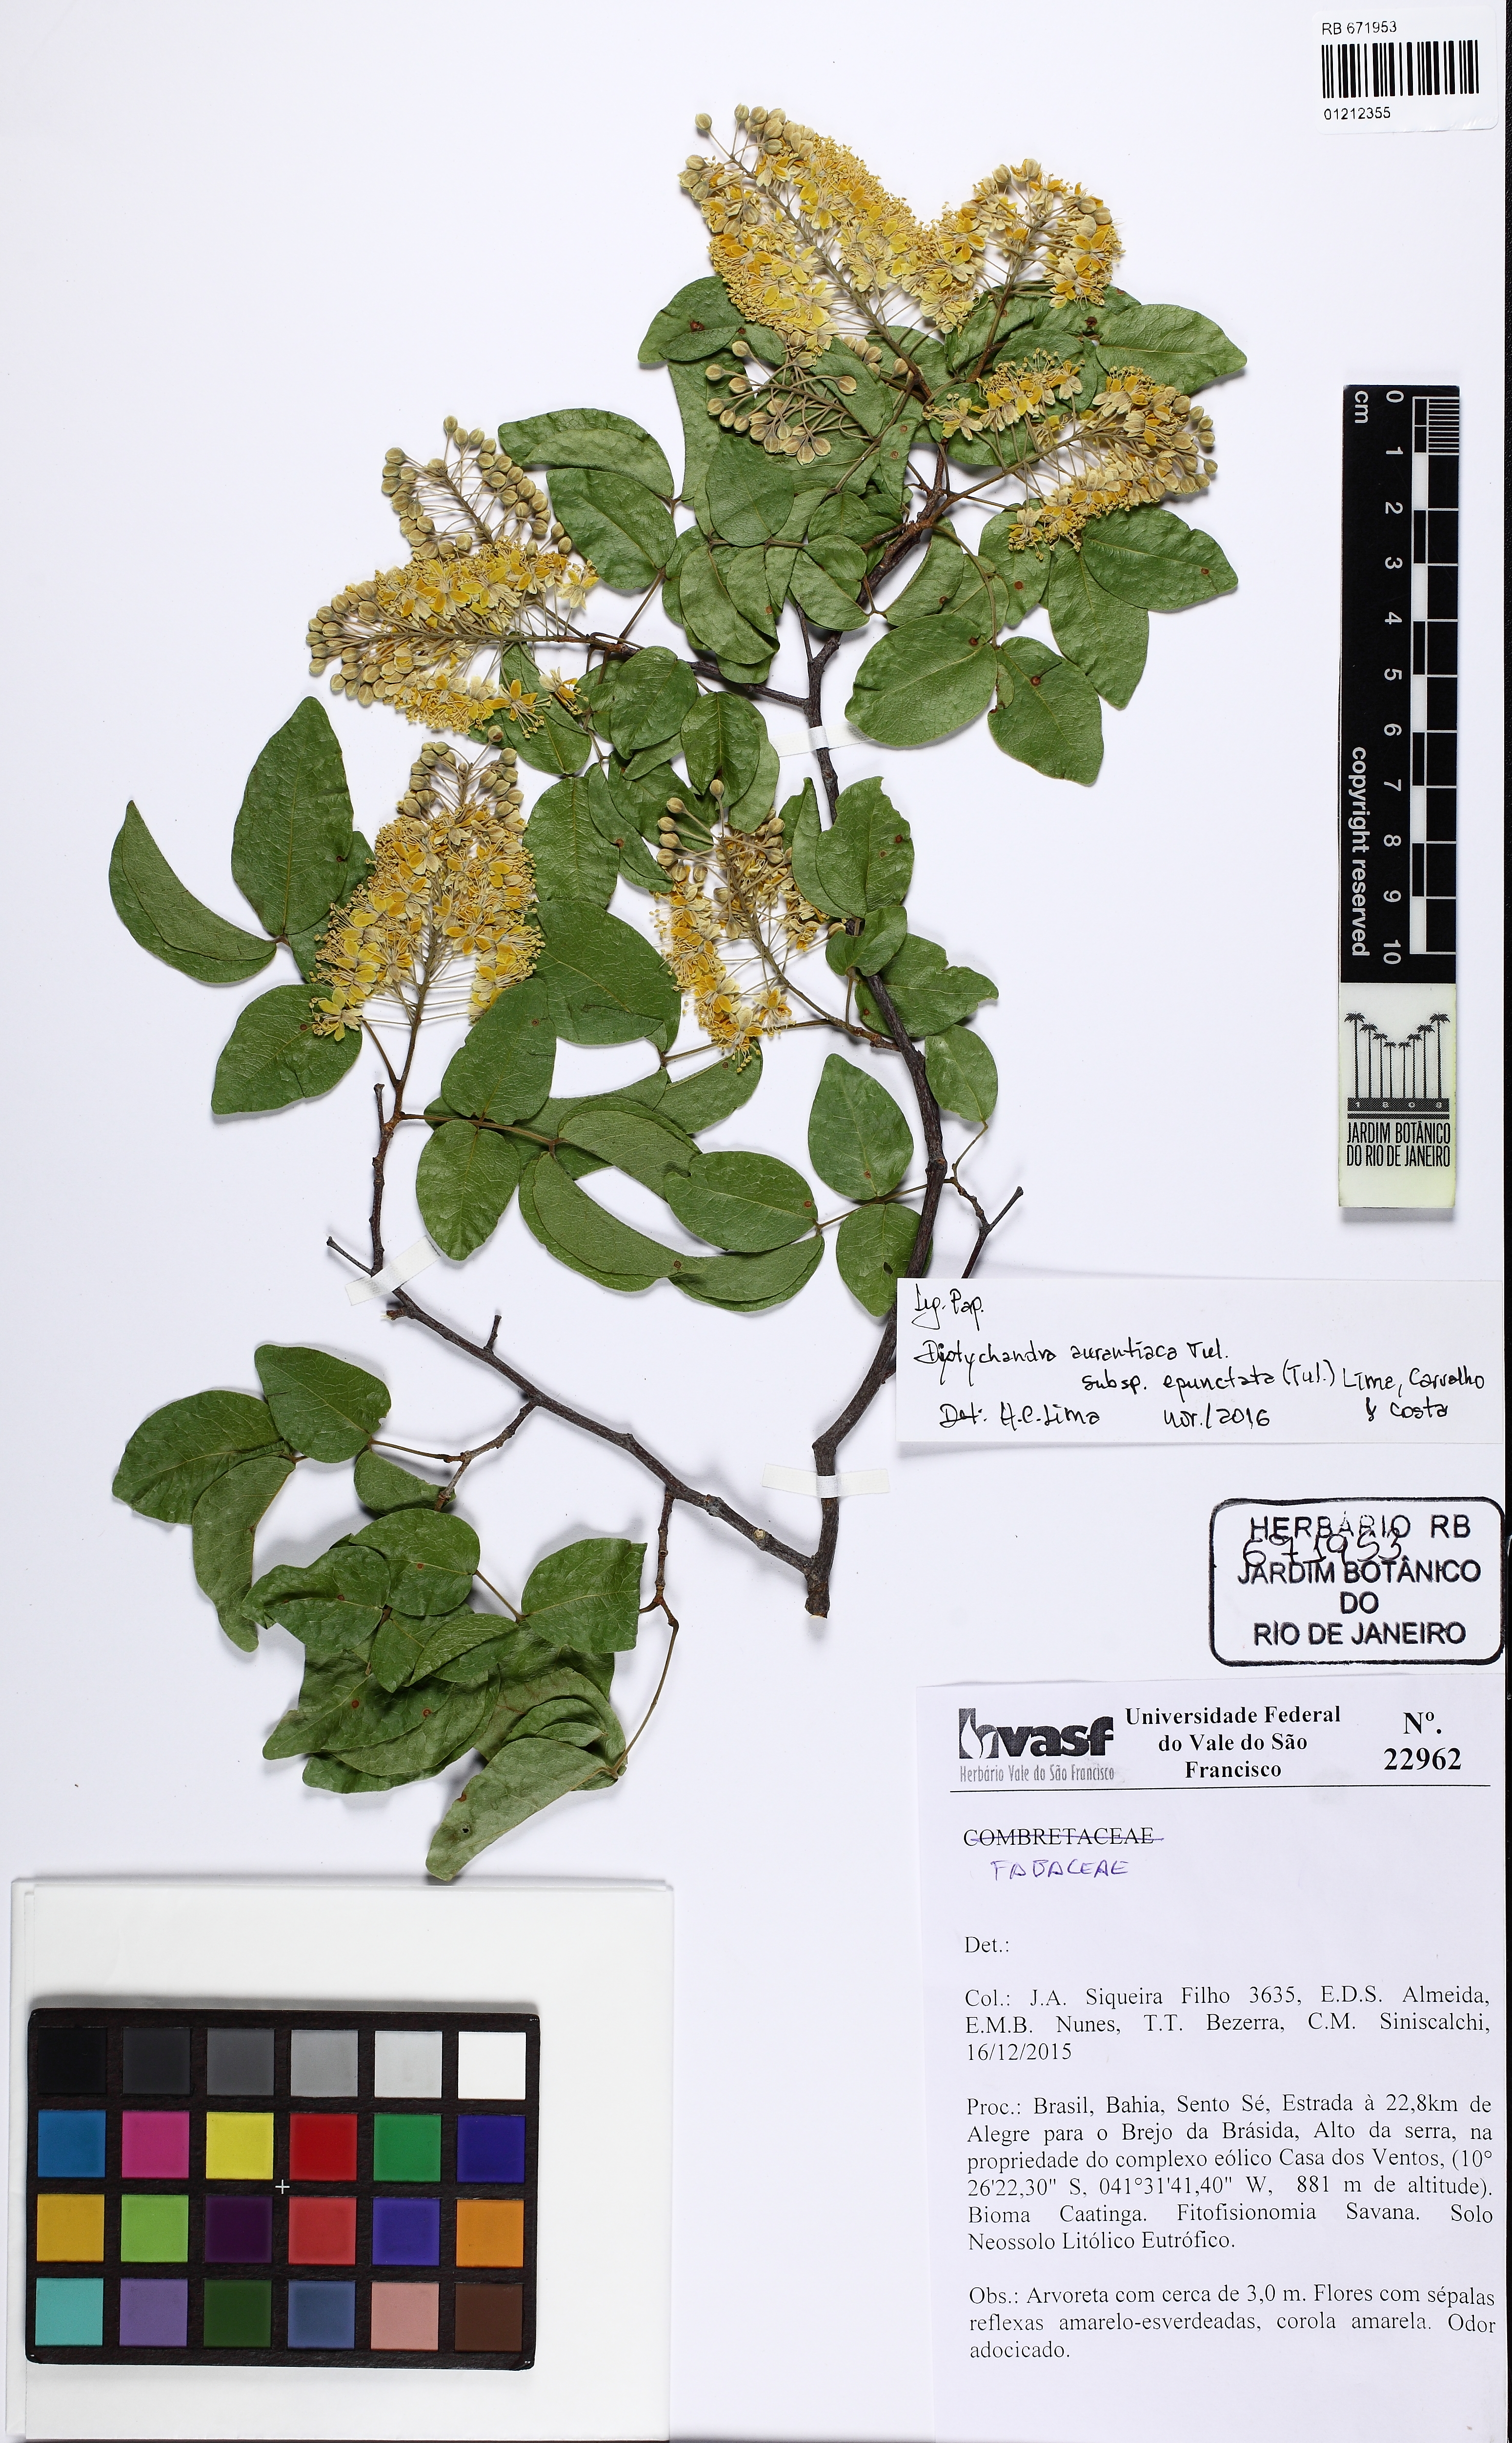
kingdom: Plantae
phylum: Tracheophyta
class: Magnoliopsida
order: Fabales
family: Fabaceae
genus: Diptychandra
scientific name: Diptychandra aurantiaca
